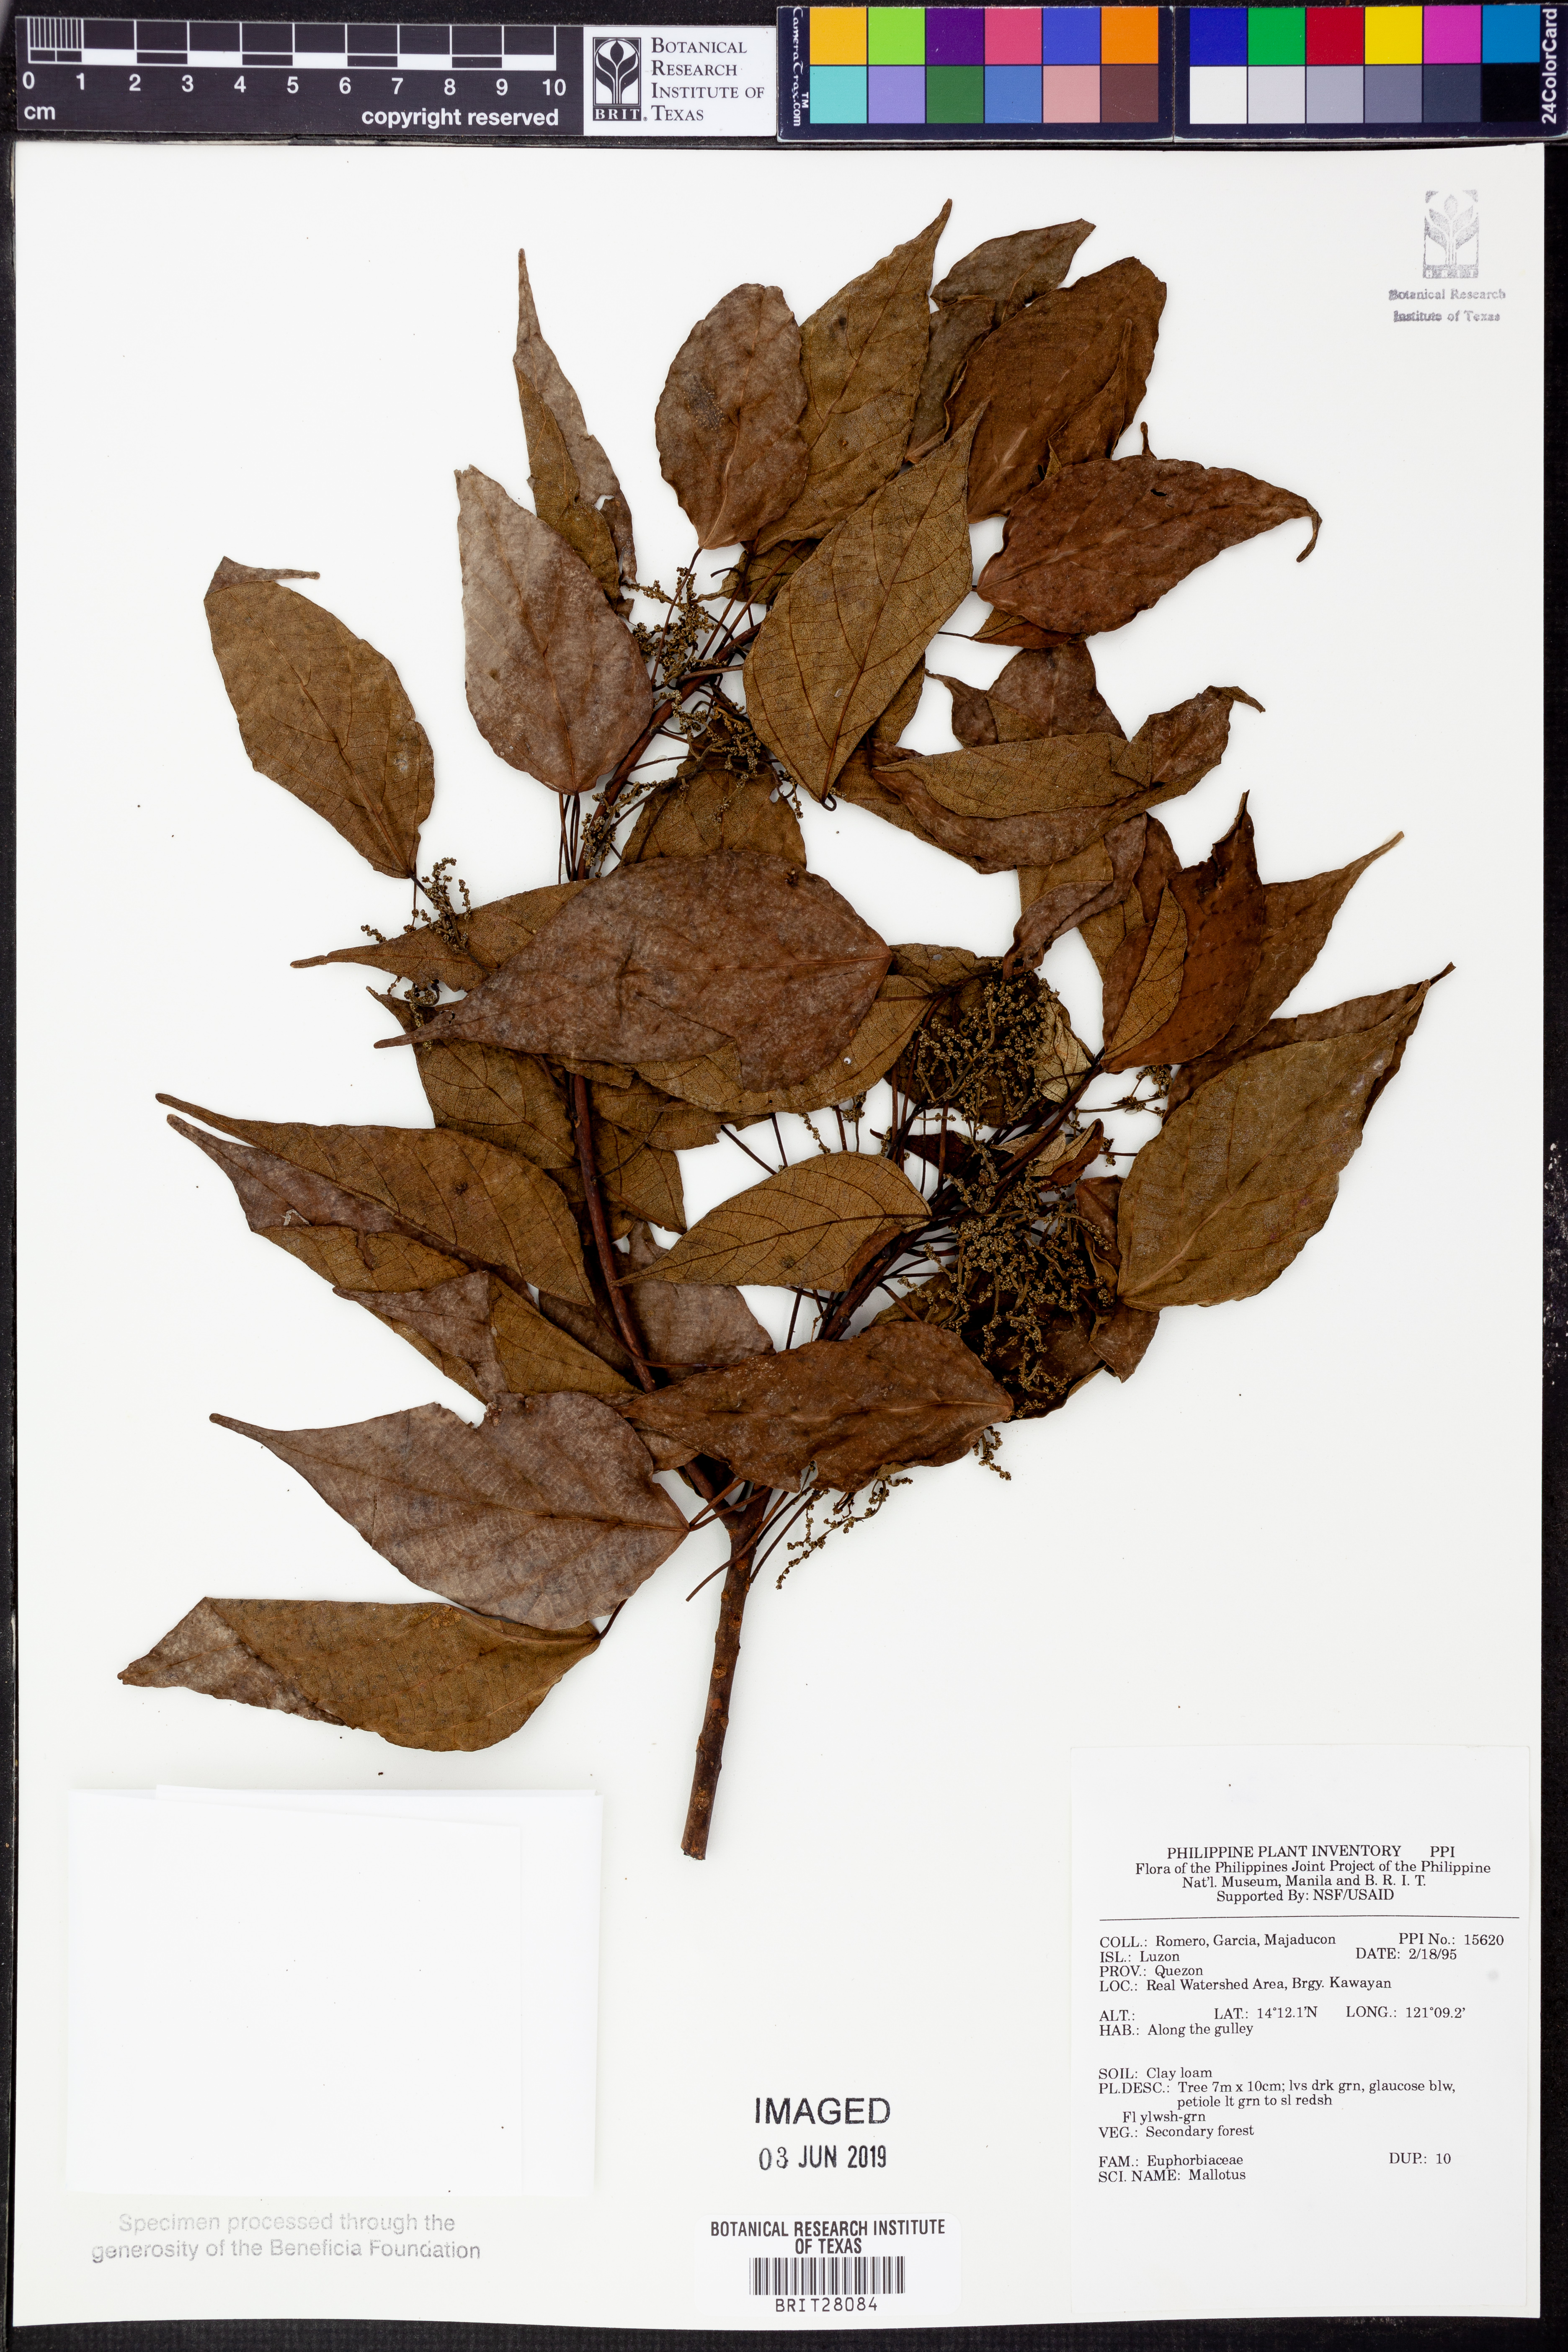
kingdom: Plantae
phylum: Tracheophyta
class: Magnoliopsida
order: Malpighiales
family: Euphorbiaceae
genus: Mallotus
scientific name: Mallotus
